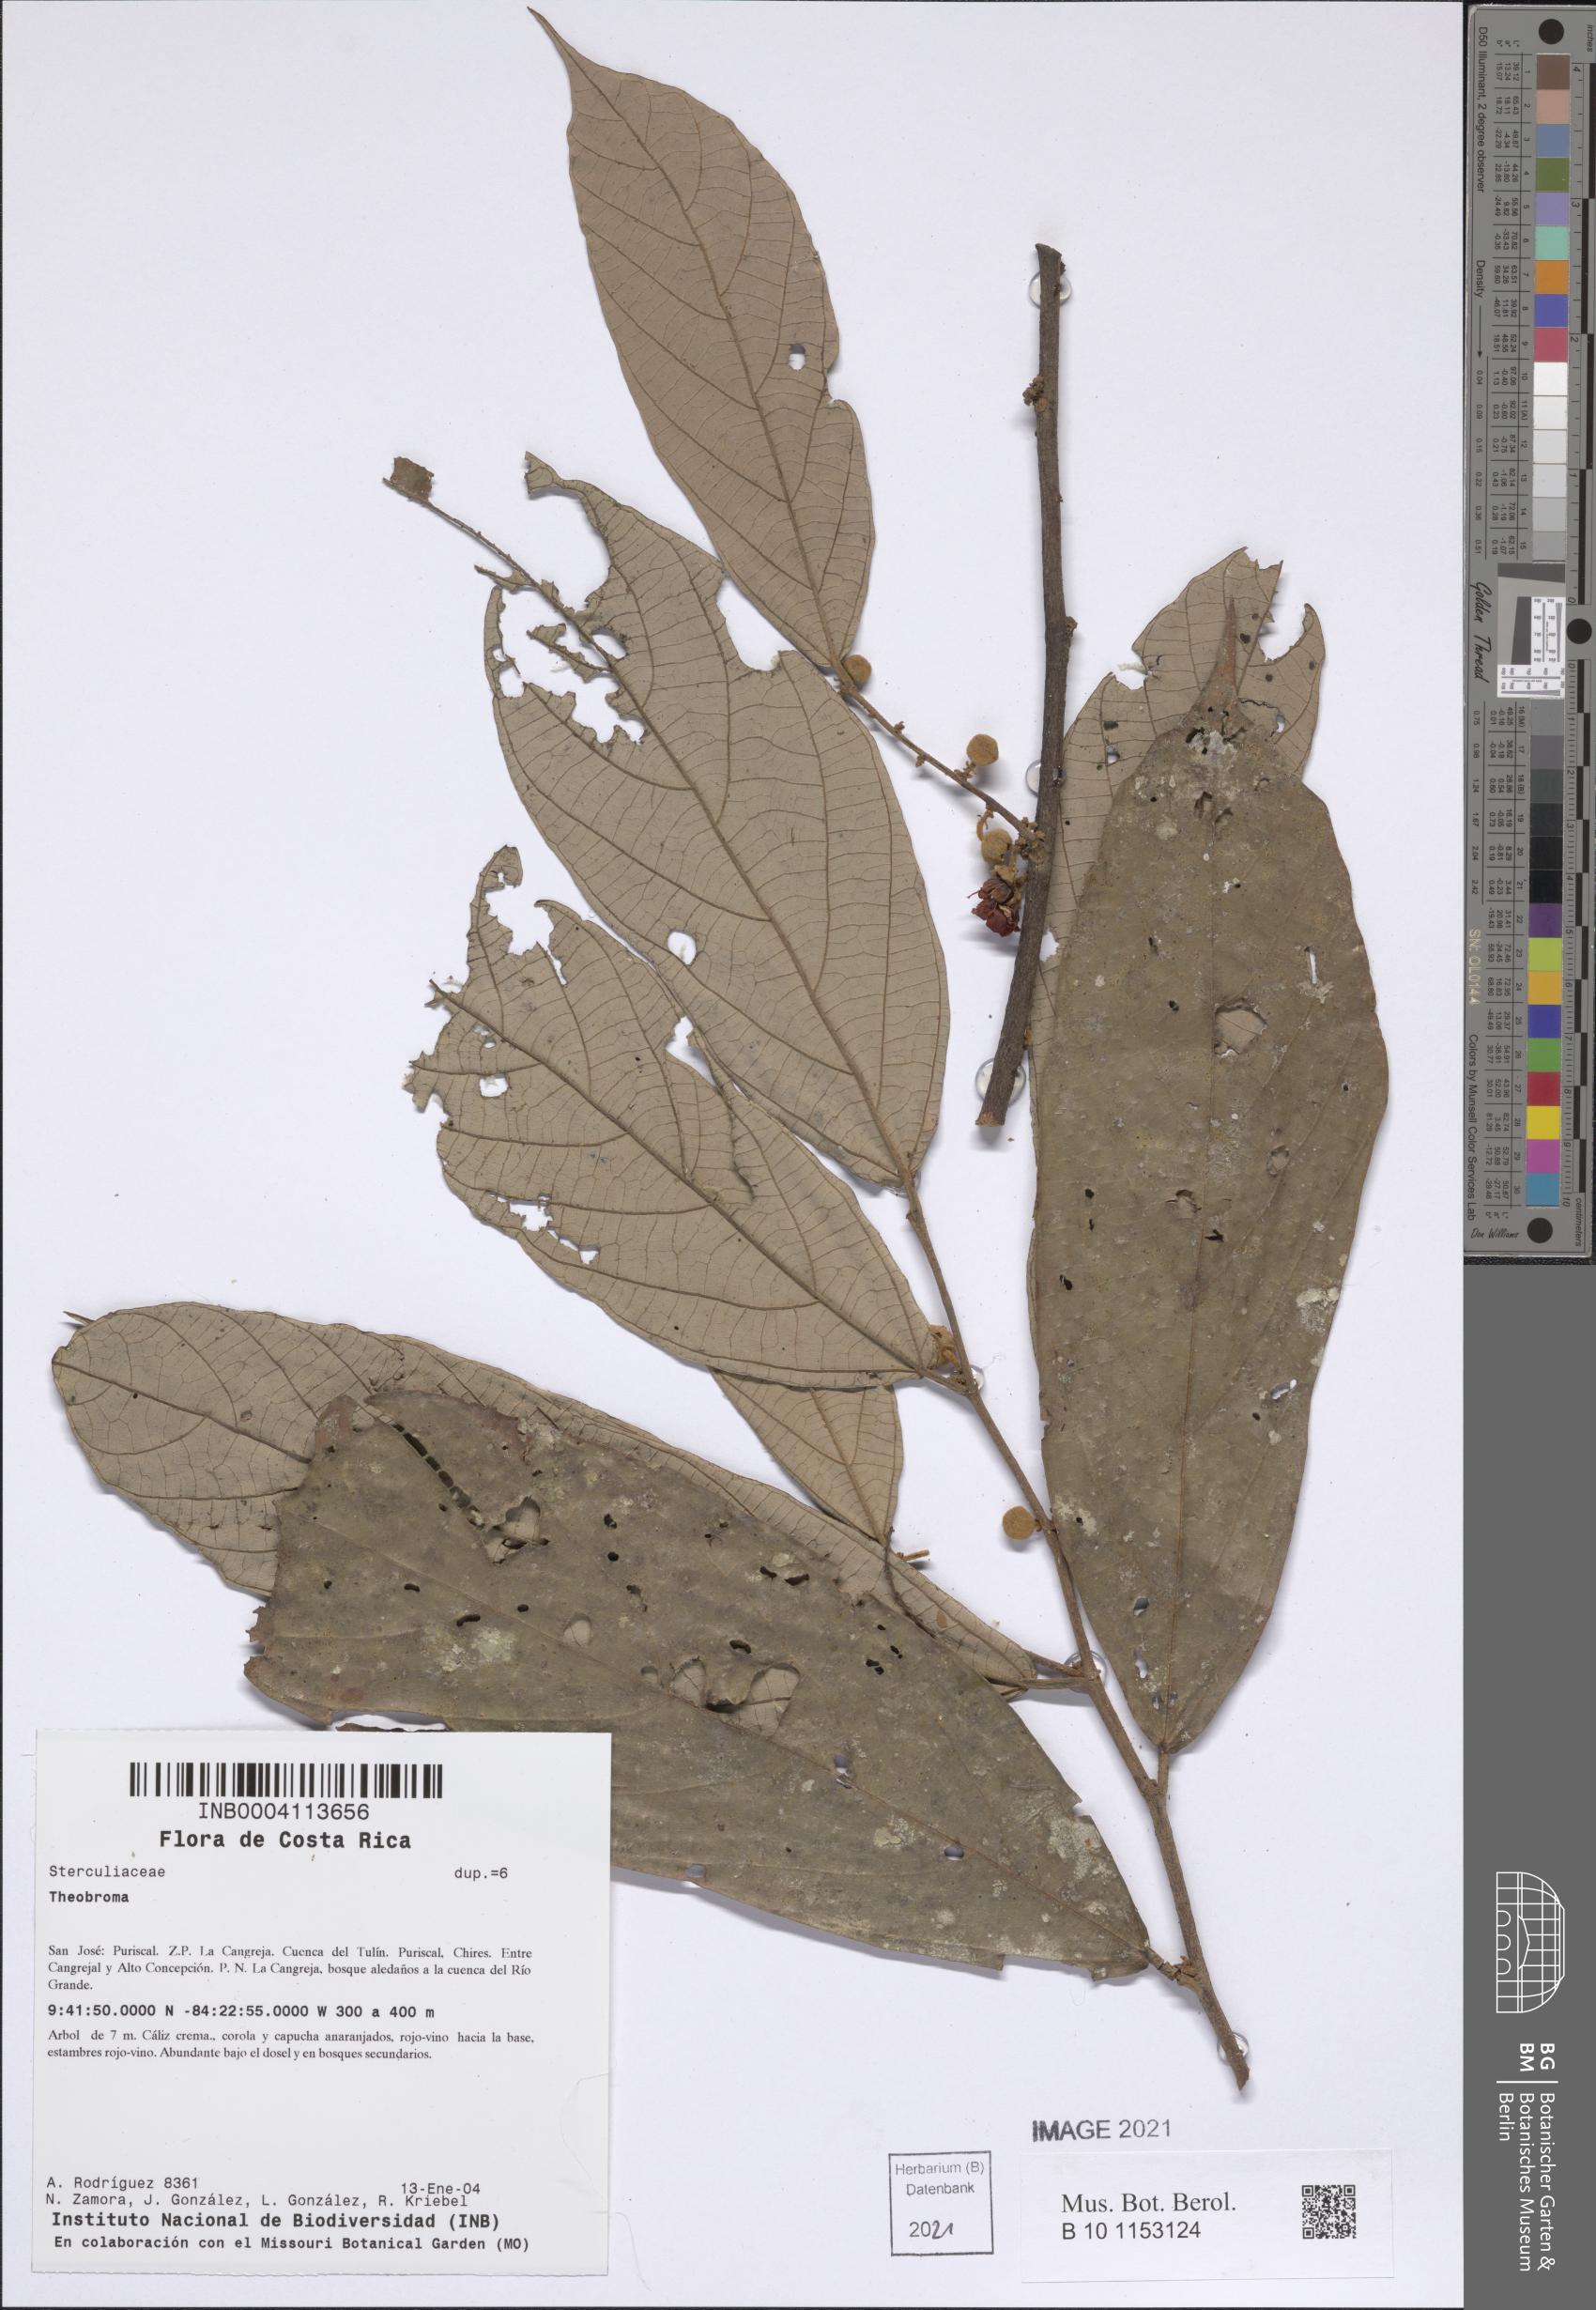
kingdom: Plantae
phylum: Tracheophyta
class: Magnoliopsida
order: Malvales
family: Malvaceae
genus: Theobroma
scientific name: Theobroma
